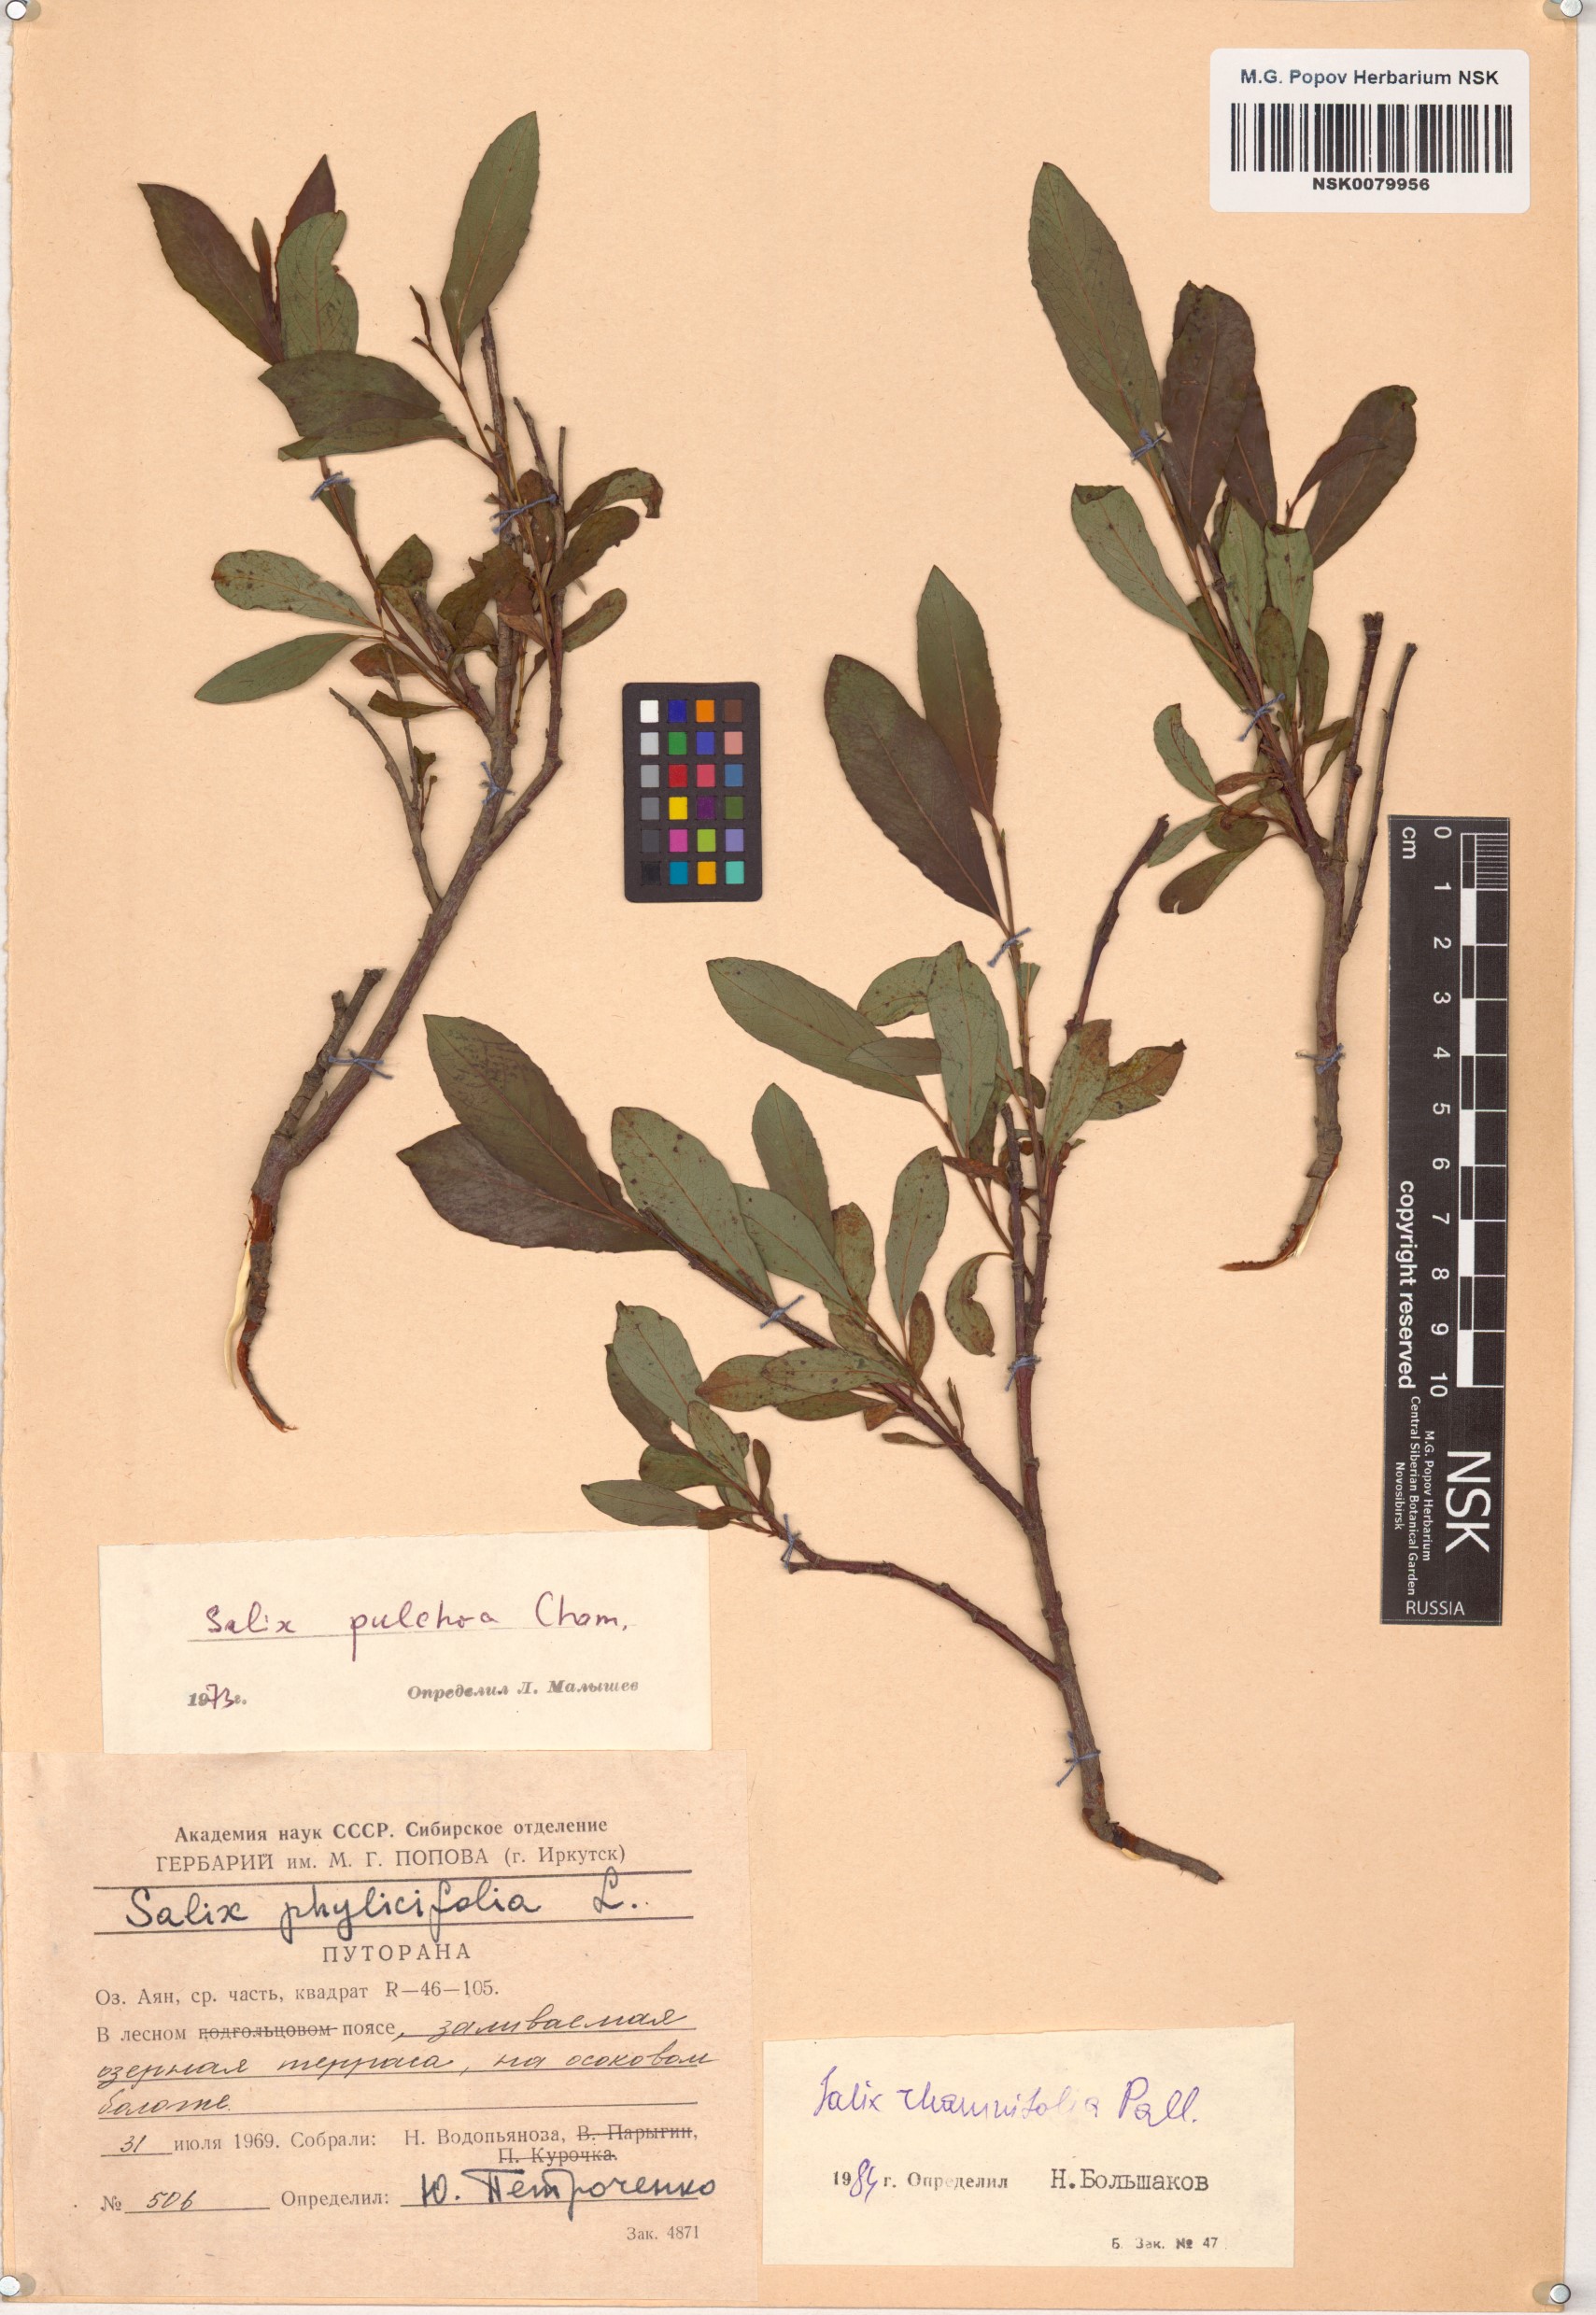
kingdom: Plantae
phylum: Tracheophyta
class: Magnoliopsida
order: Malpighiales
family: Salicaceae
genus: Salix
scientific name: Salix rhamnifolia
